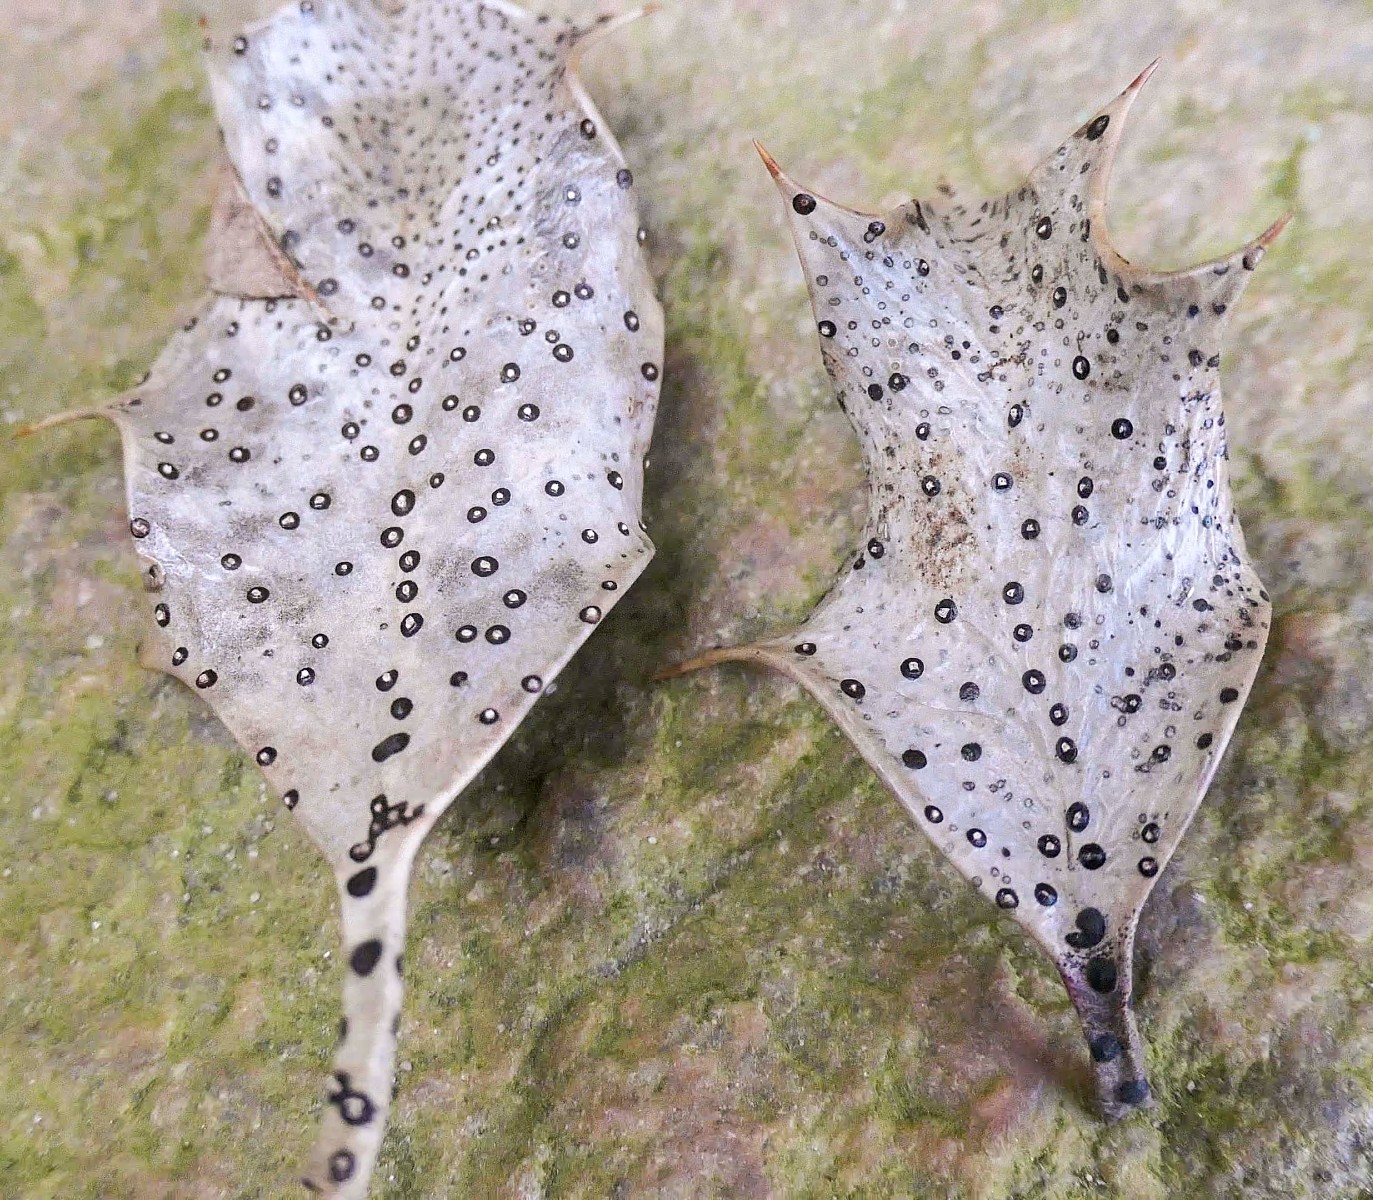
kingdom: Fungi
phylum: Ascomycota
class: Leotiomycetes
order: Phacidiales
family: Phacidiaceae
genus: Phacidium
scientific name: Phacidium lauri
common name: kristtorn-tandskive
